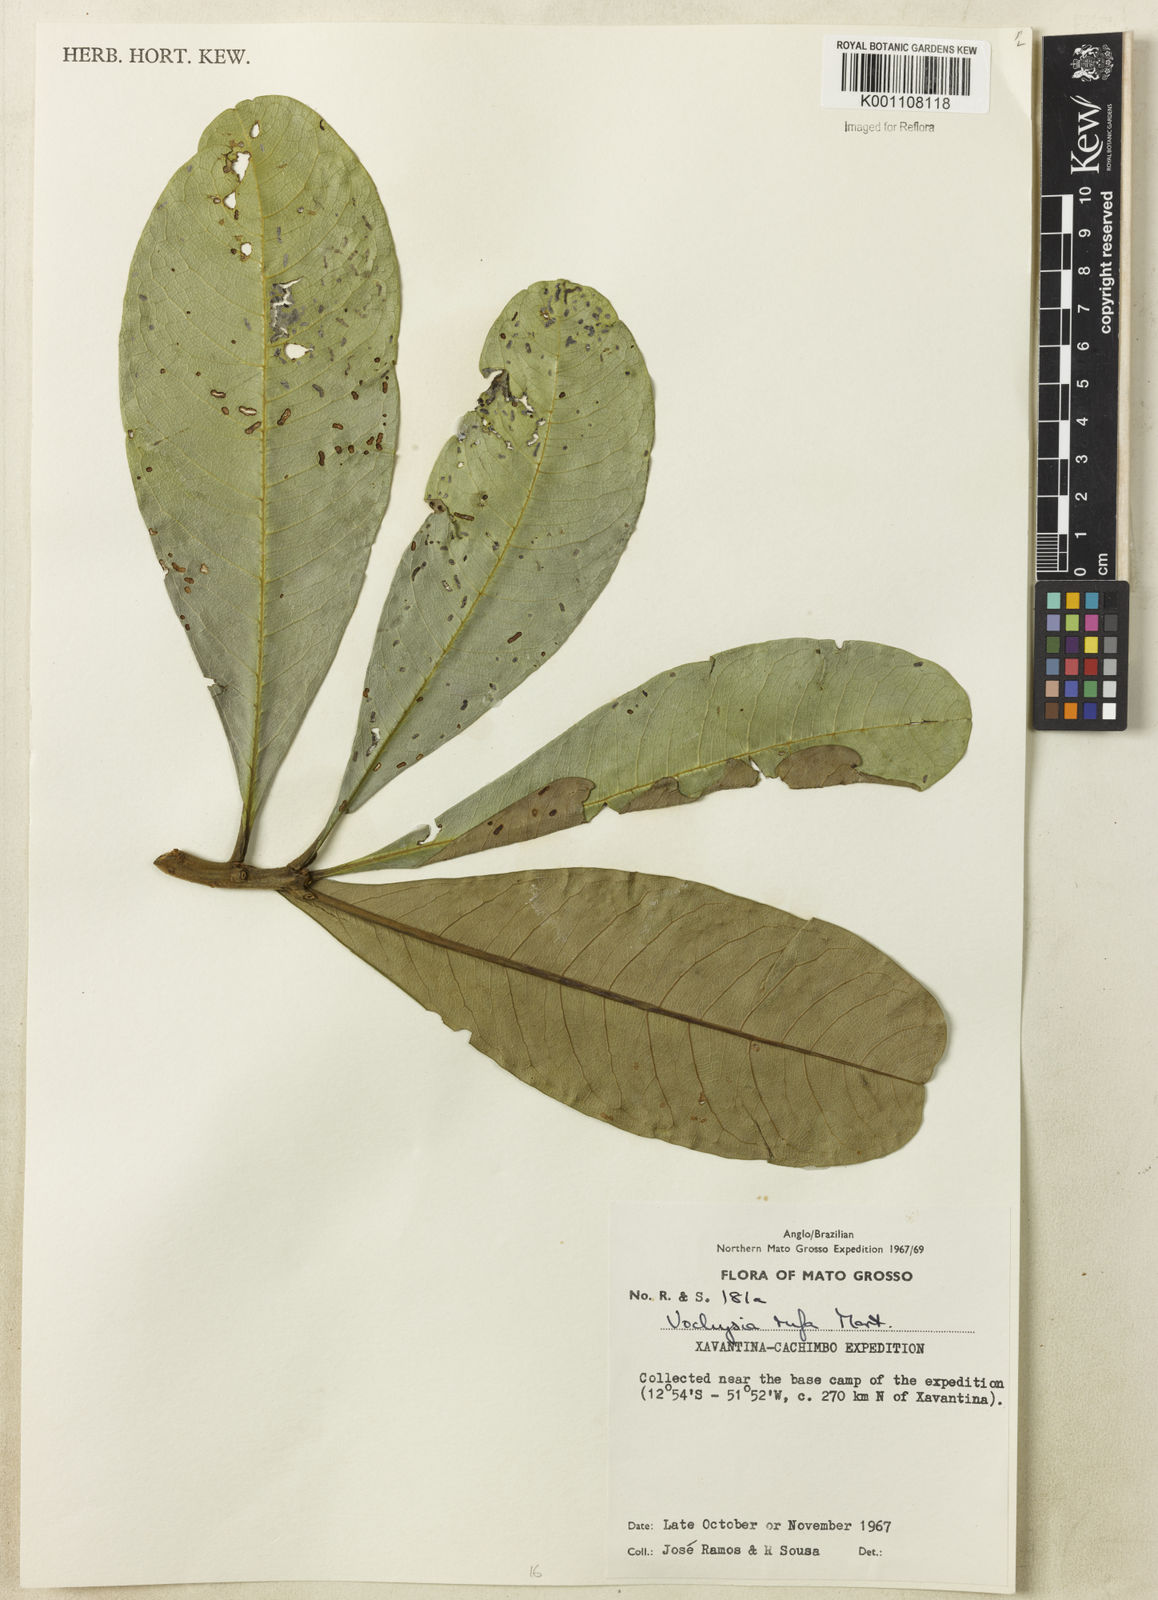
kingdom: Plantae
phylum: Tracheophyta
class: Magnoliopsida
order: Myrtales
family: Vochysiaceae
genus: Vochysia
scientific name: Vochysia rufa
